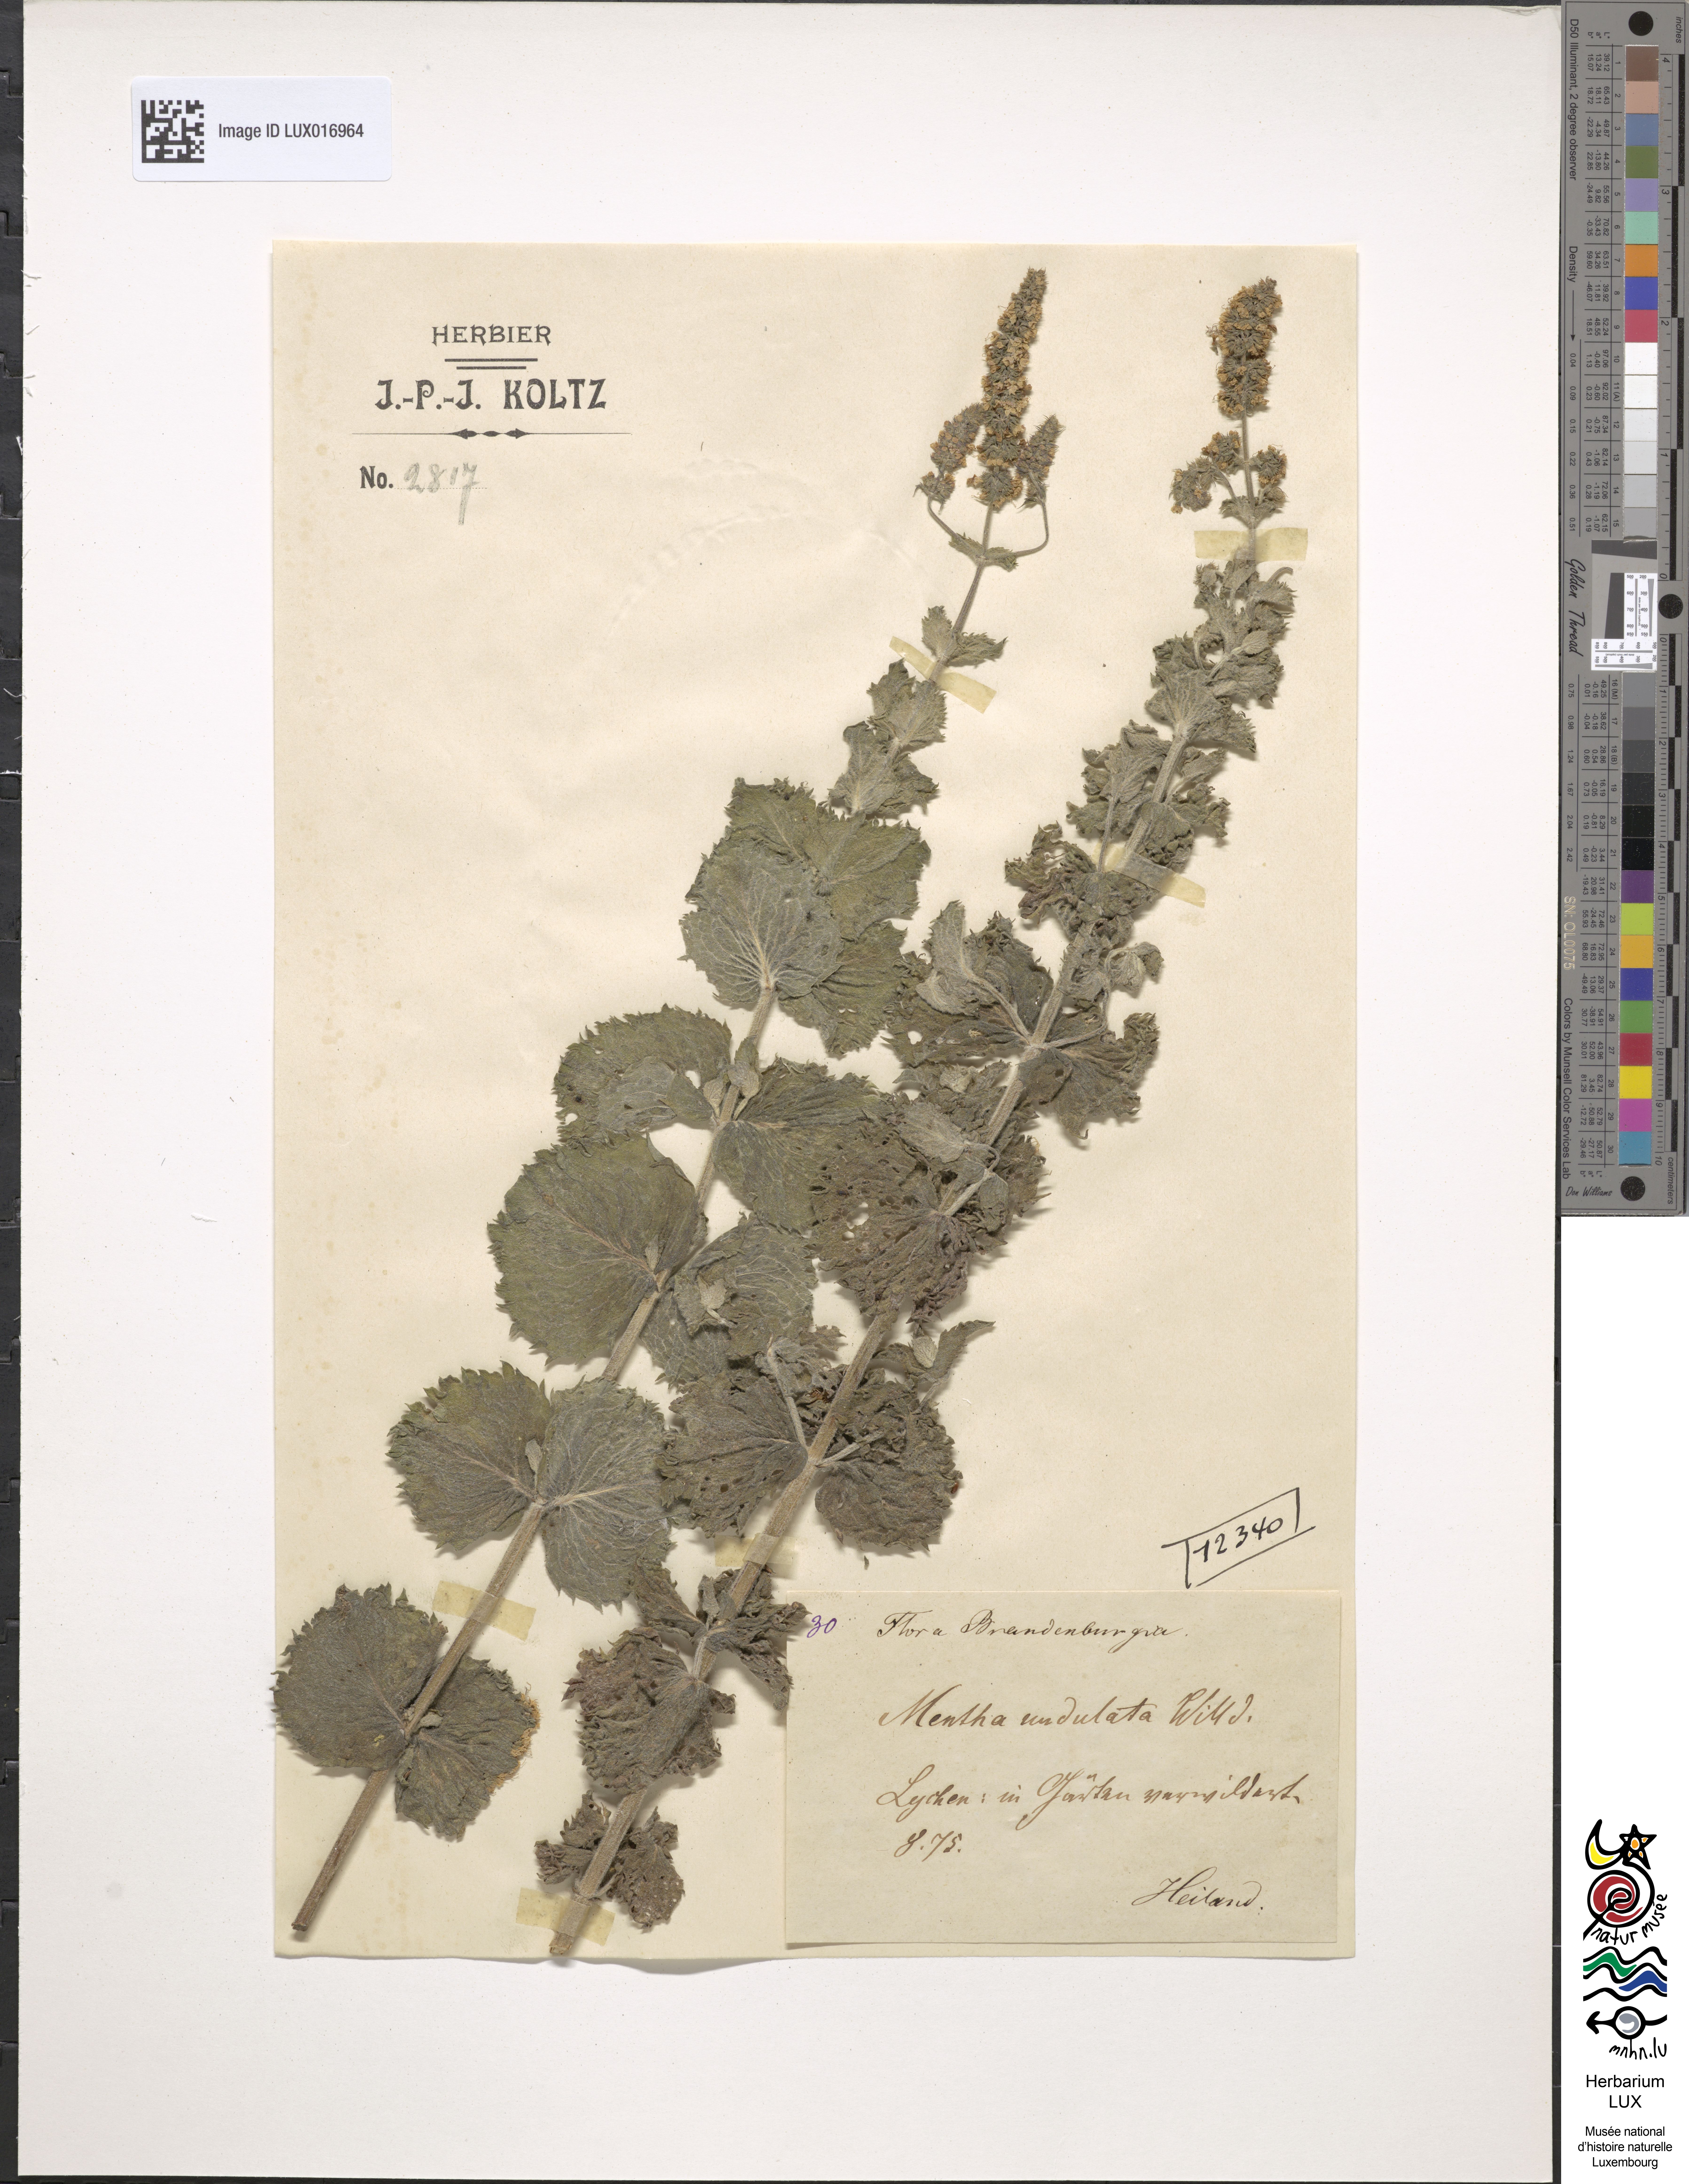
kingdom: Plantae
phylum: Tracheophyta
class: Magnoliopsida
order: Lamiales
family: Lamiaceae
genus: Mentha
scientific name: Mentha spicata
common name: Spearmint
